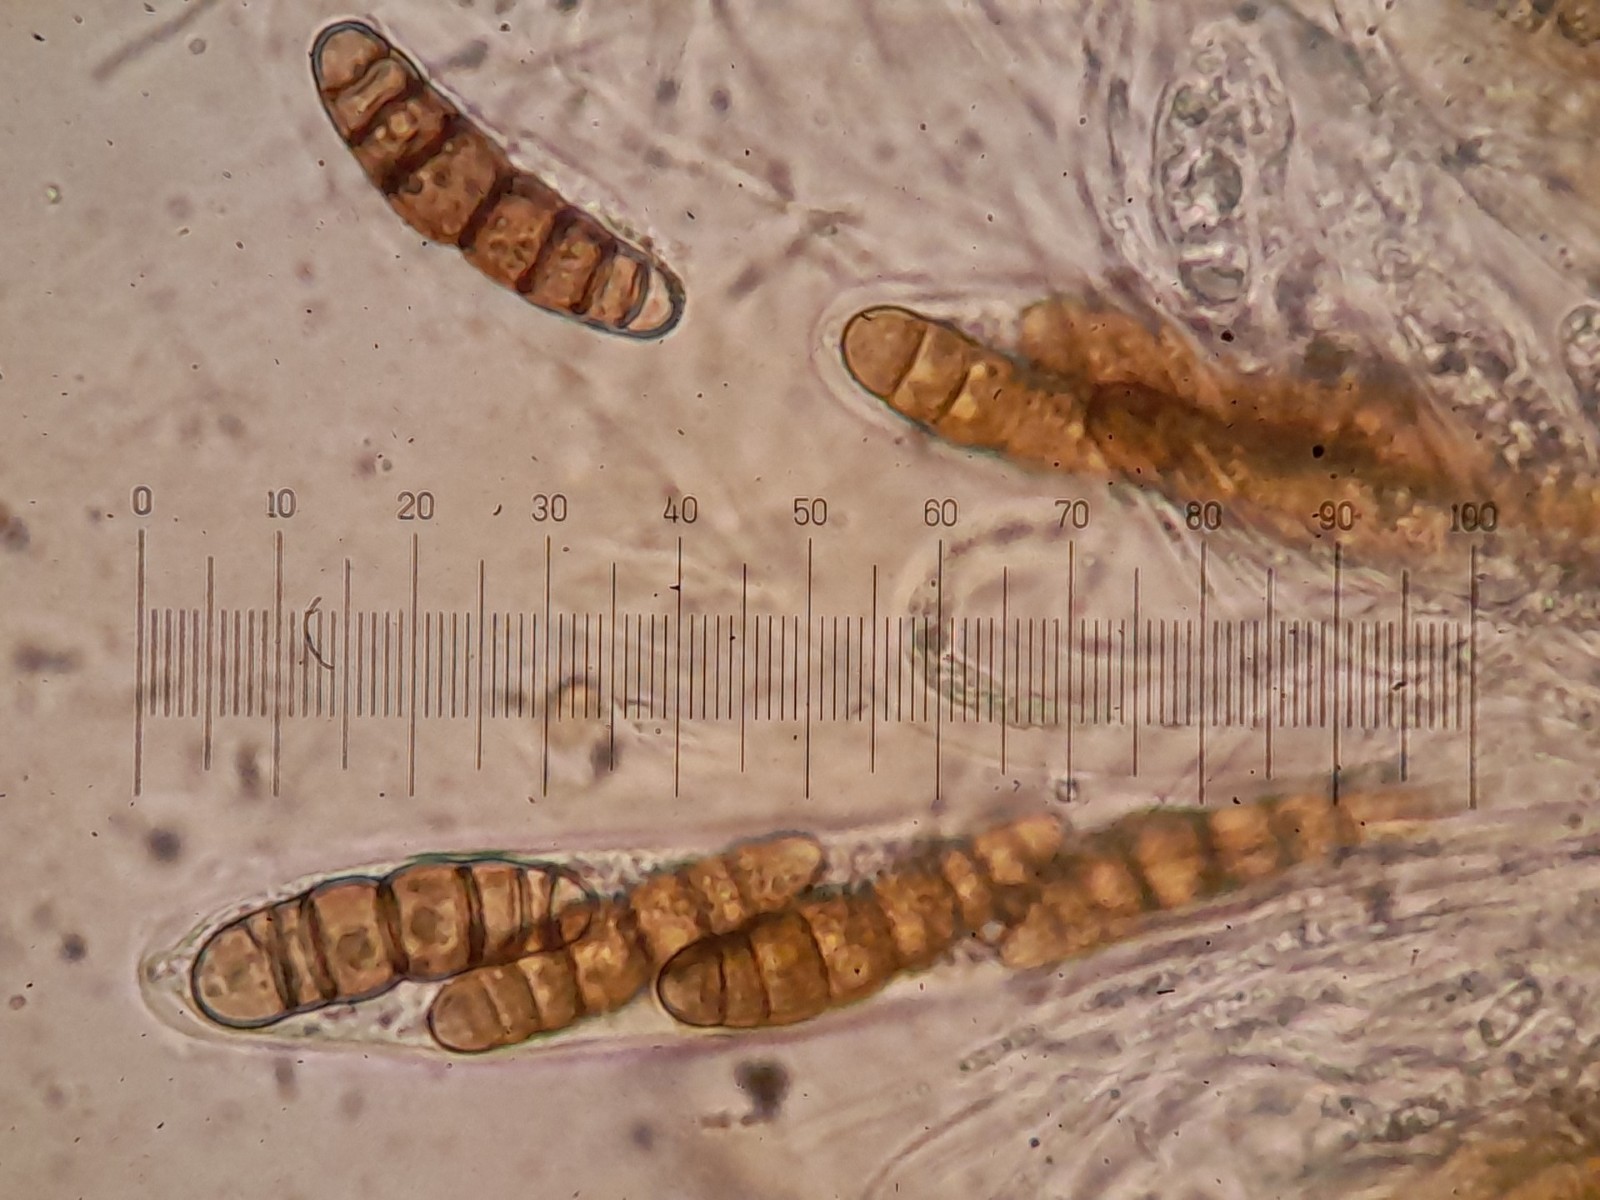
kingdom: Fungi
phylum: Ascomycota
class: Dothideomycetes
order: Pleosporales
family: Thyridariaceae
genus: Thyridaria
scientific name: Thyridaria macrostomoides
